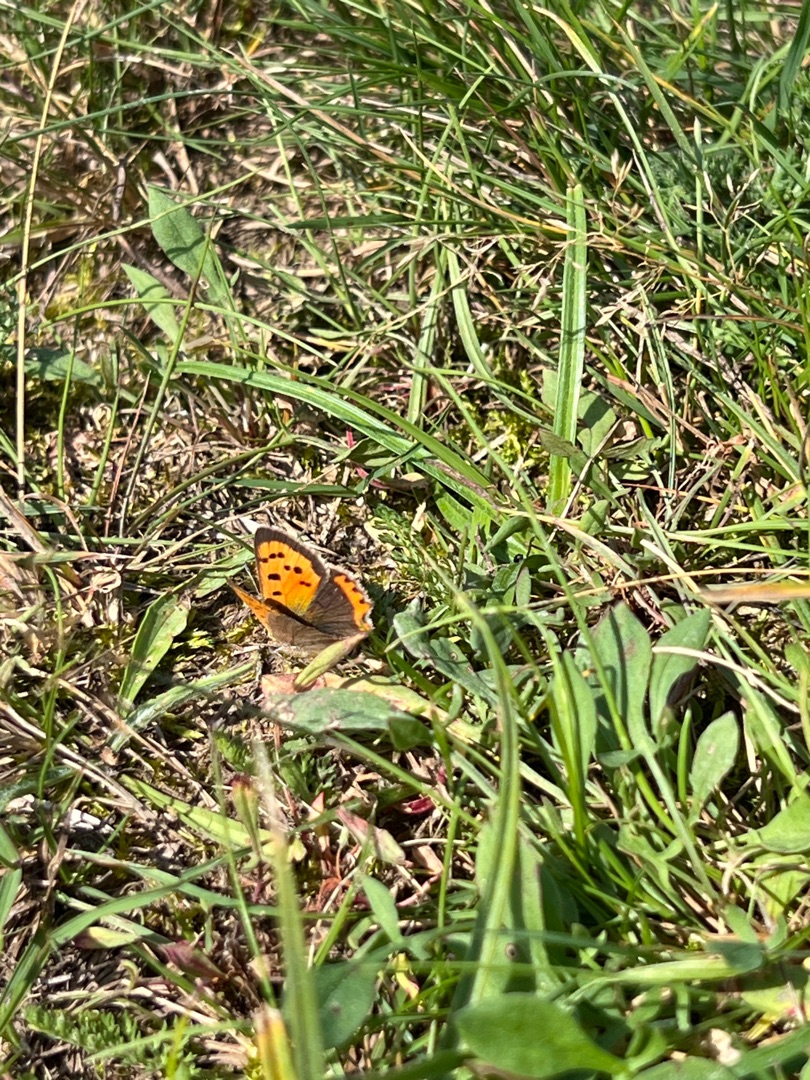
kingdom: Animalia
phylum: Arthropoda
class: Insecta
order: Lepidoptera
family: Lycaenidae
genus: Lycaena
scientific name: Lycaena phlaeas
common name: Lille ildfugl
